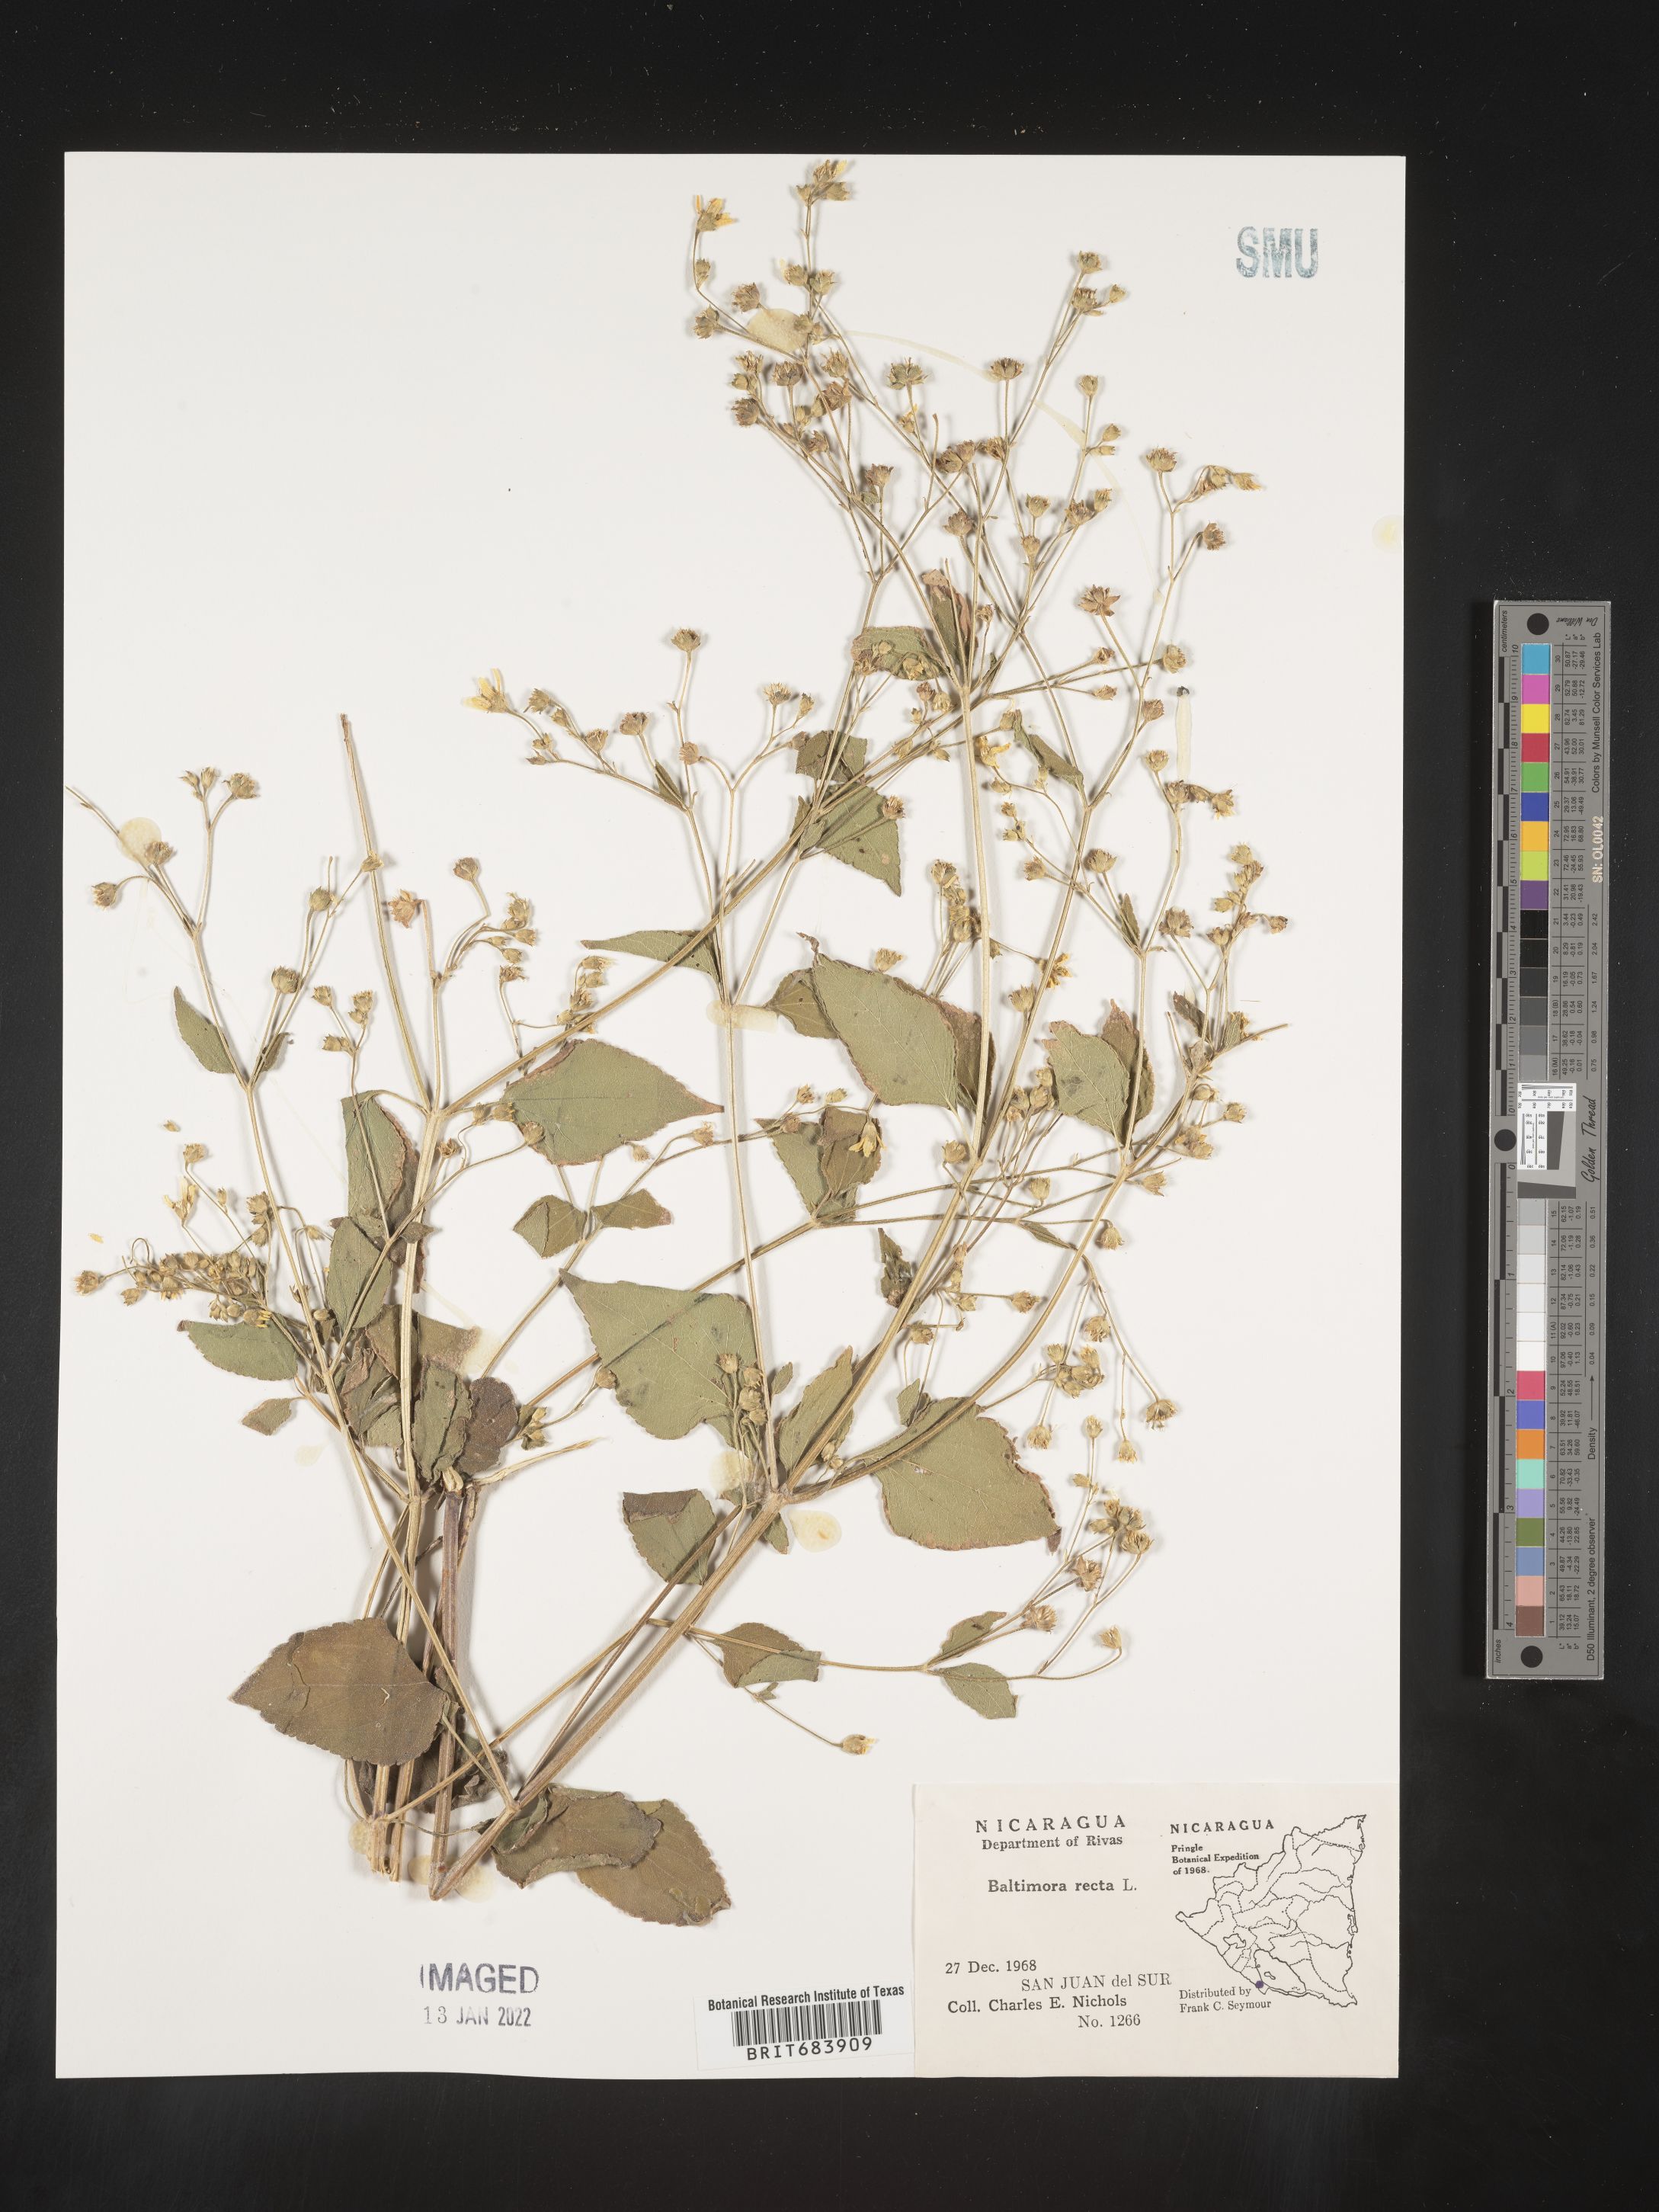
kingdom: Plantae
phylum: Tracheophyta
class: Magnoliopsida
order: Asterales
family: Asteraceae
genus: Baltimora
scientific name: Baltimora
